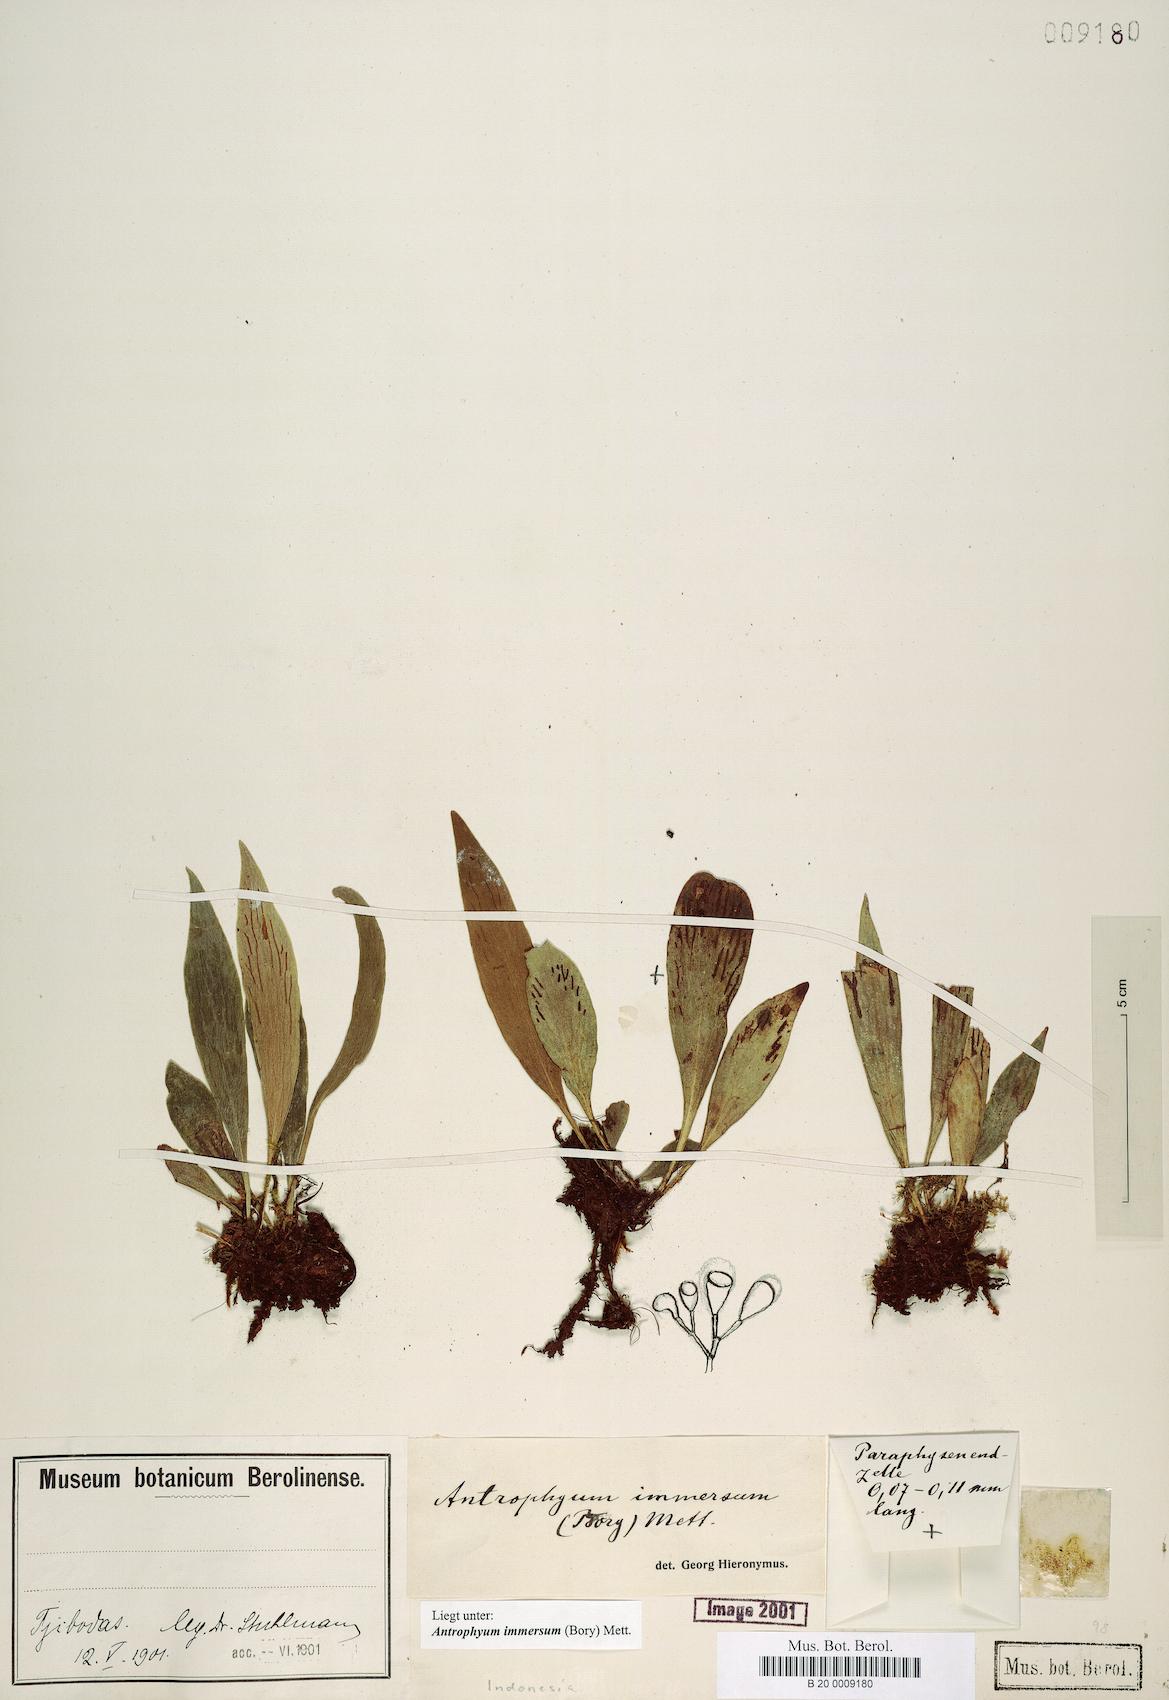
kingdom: Plantae
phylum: Tracheophyta
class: Polypodiopsida
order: Polypodiales
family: Pteridaceae
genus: Antrophyum
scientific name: Antrophyum parvulum
